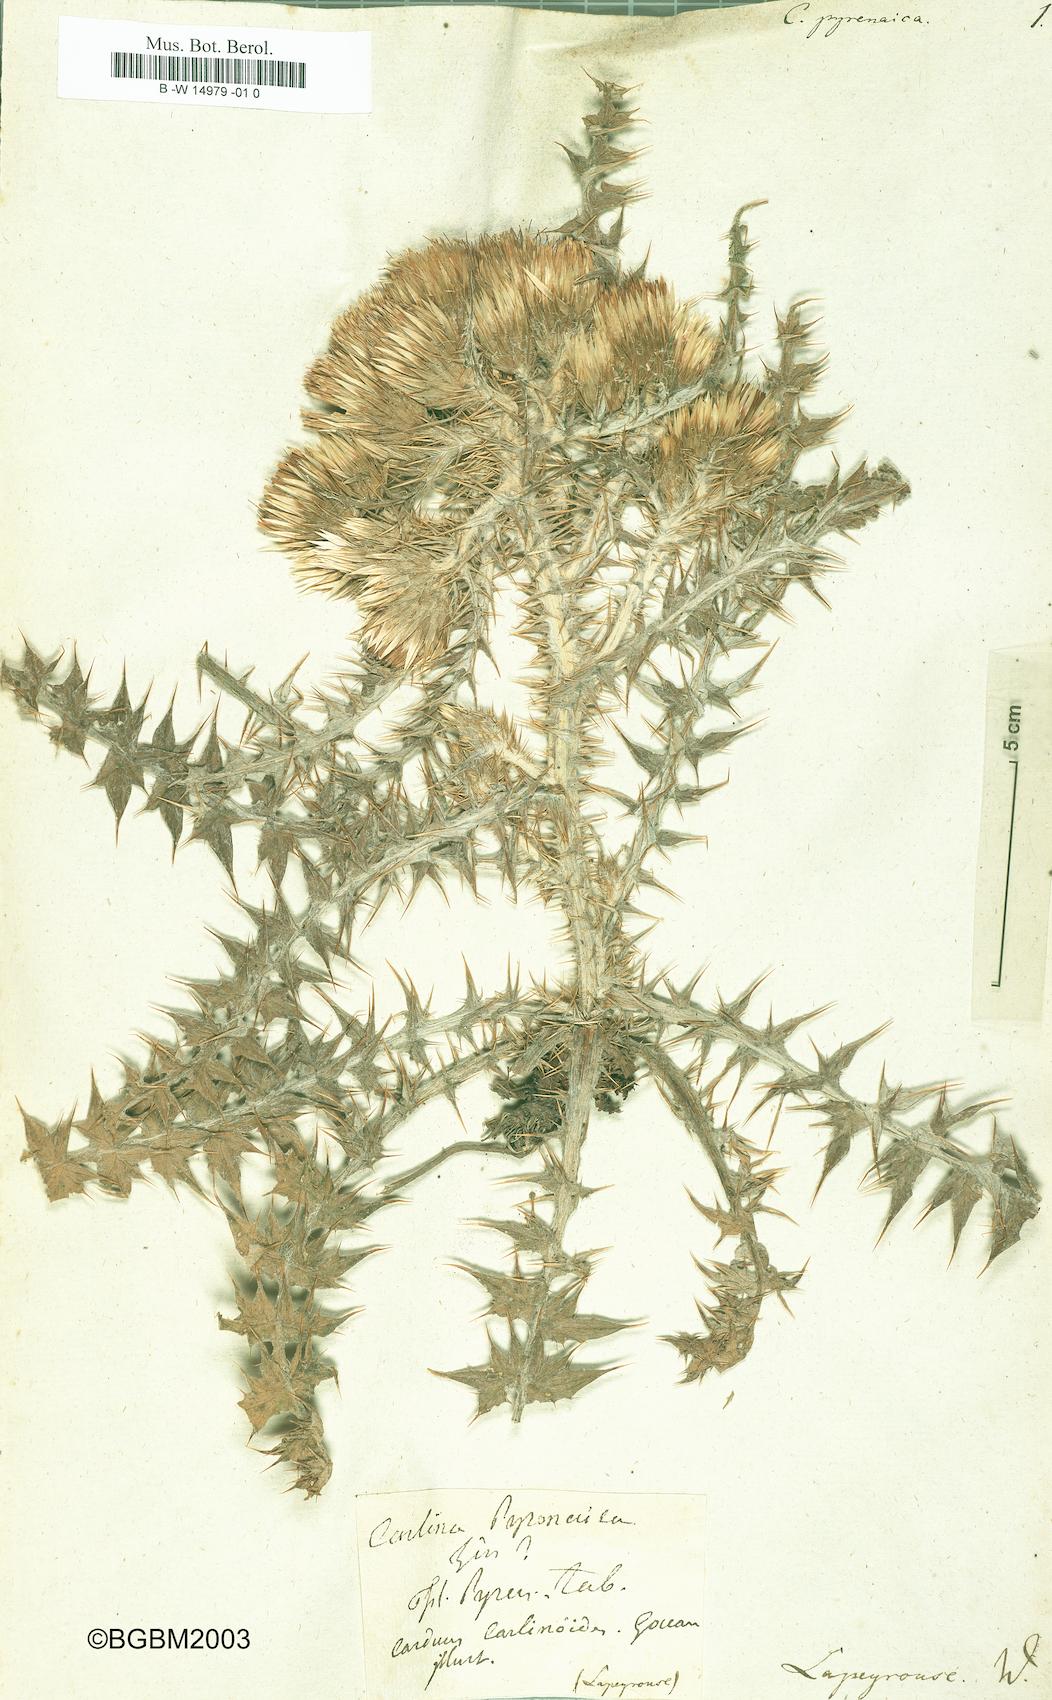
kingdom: Plantae
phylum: Tracheophyta
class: Magnoliopsida
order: Asterales
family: Asteraceae
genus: Carduus
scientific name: Carduus carlinoides
